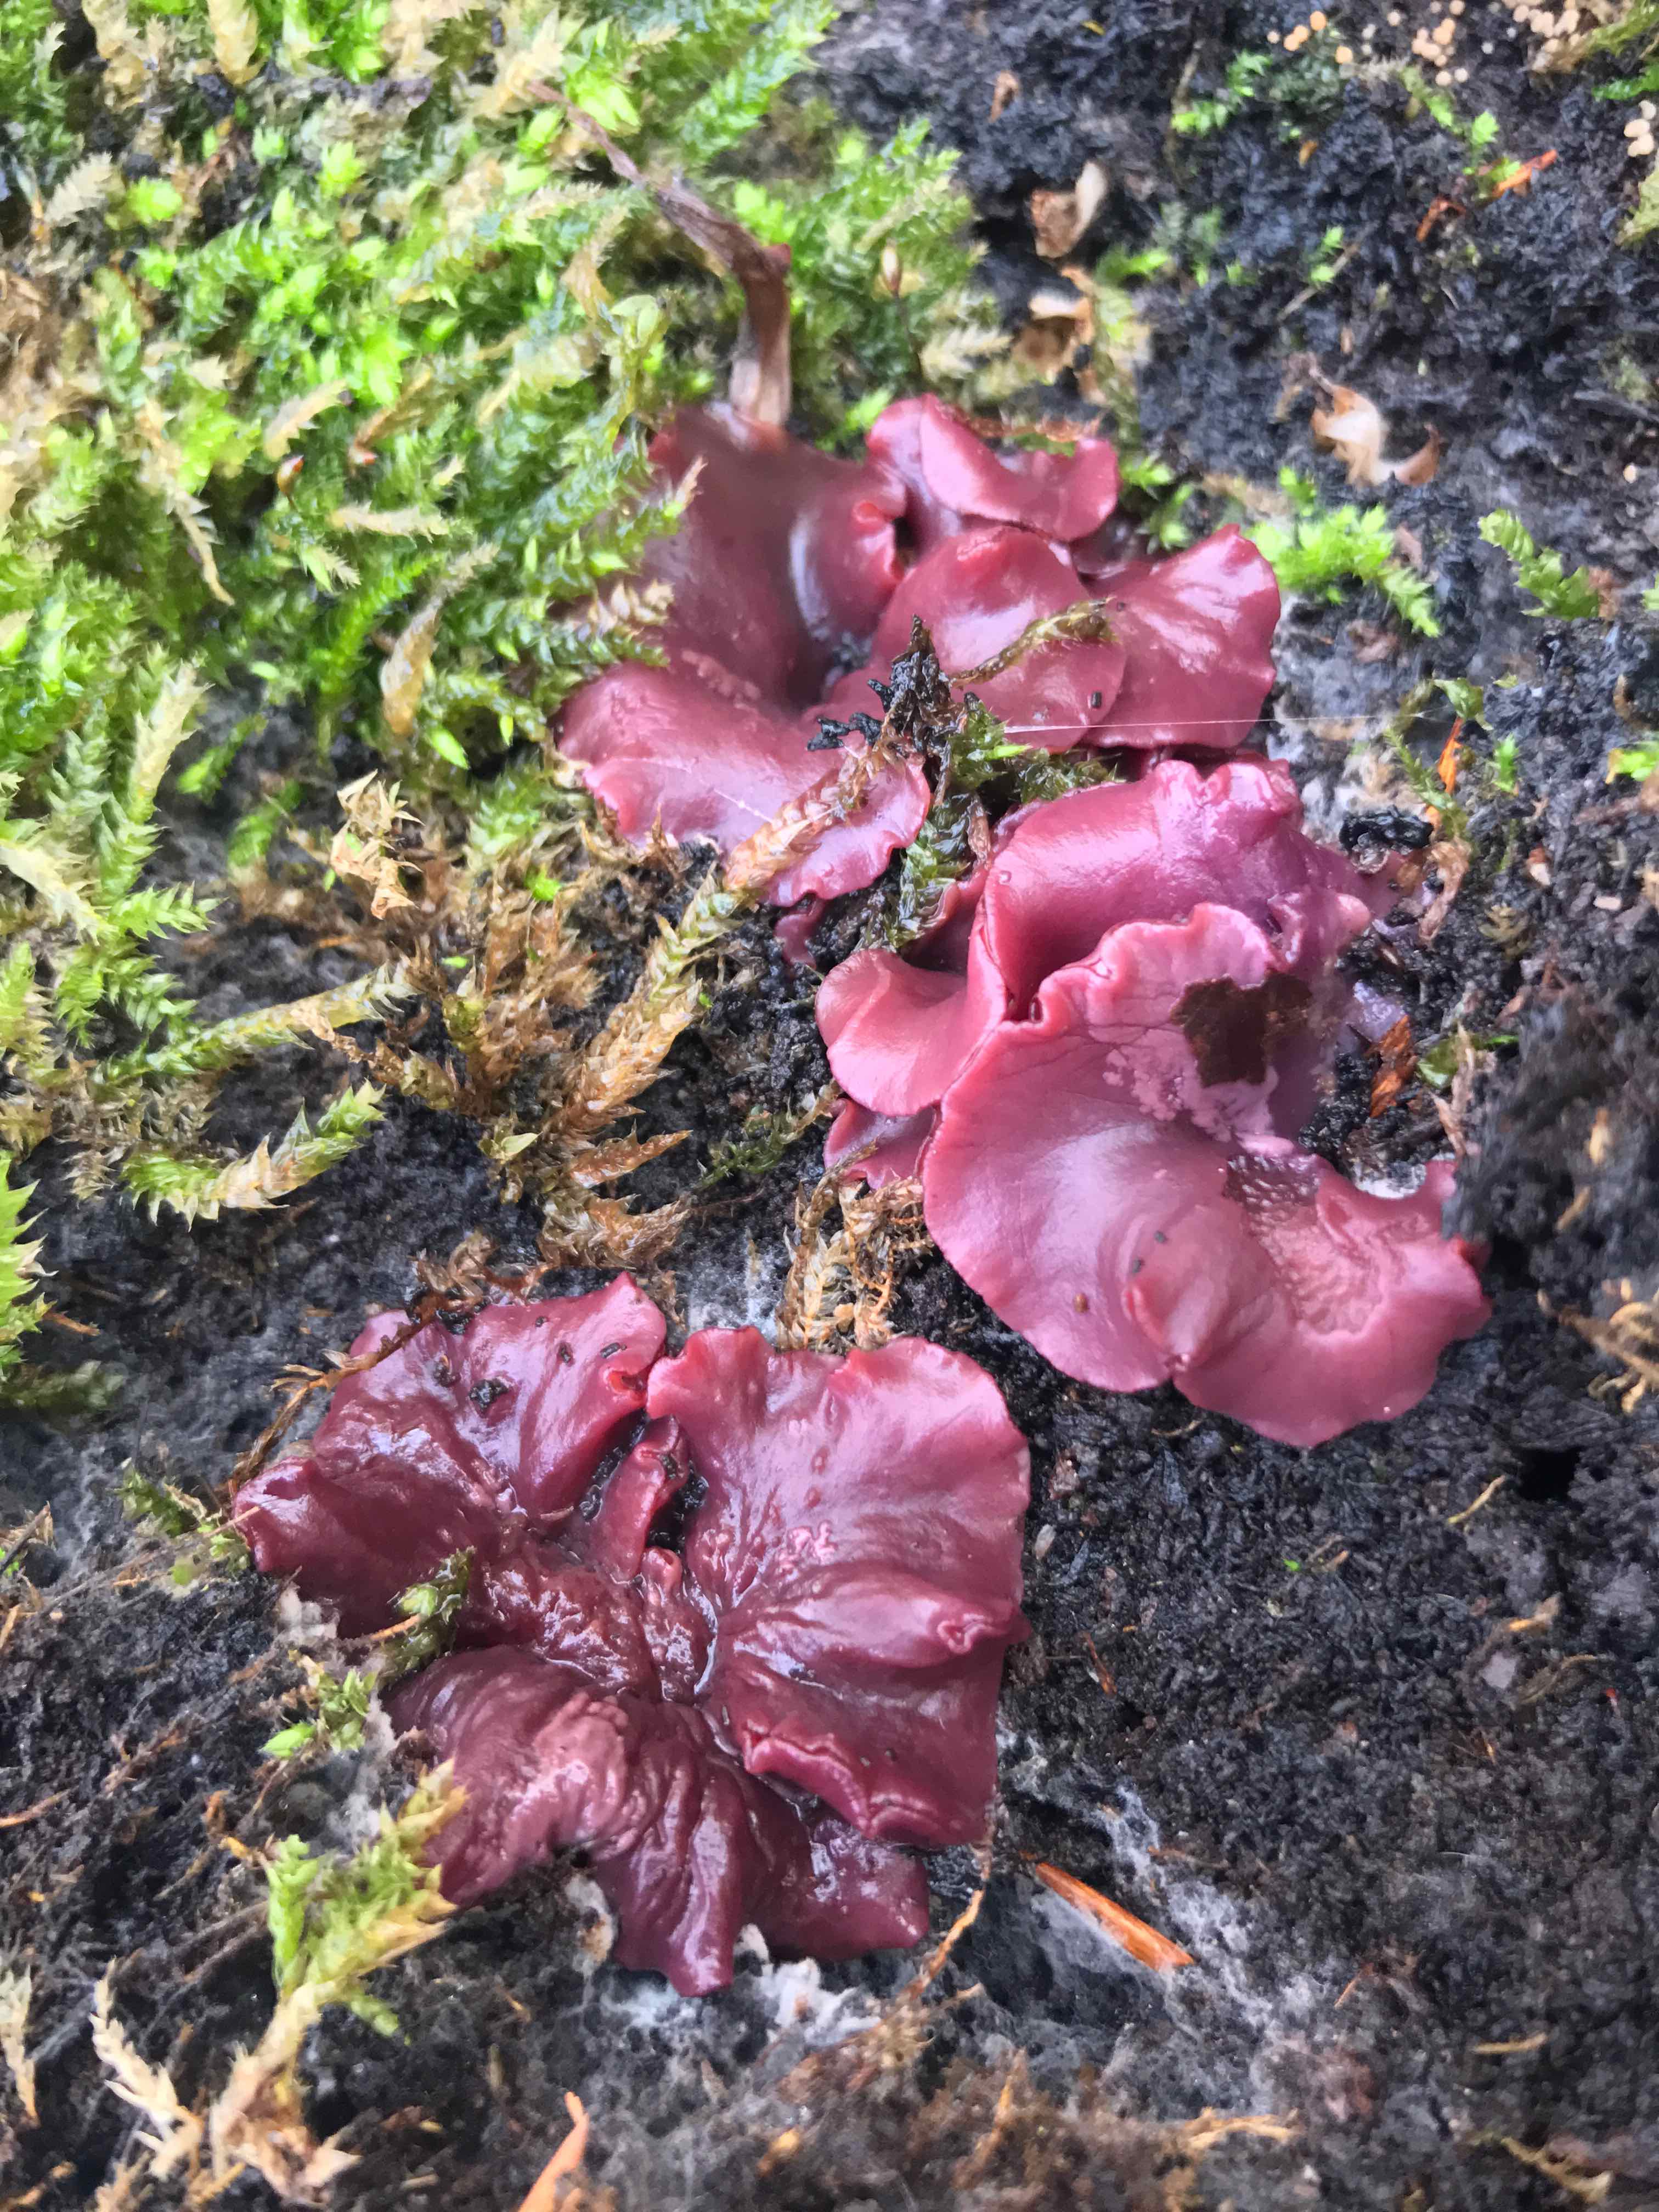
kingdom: Fungi
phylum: Ascomycota
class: Leotiomycetes
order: Helotiales
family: Gelatinodiscaceae
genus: Ascocoryne
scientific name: Ascocoryne cylichnium
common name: stor sejskive
